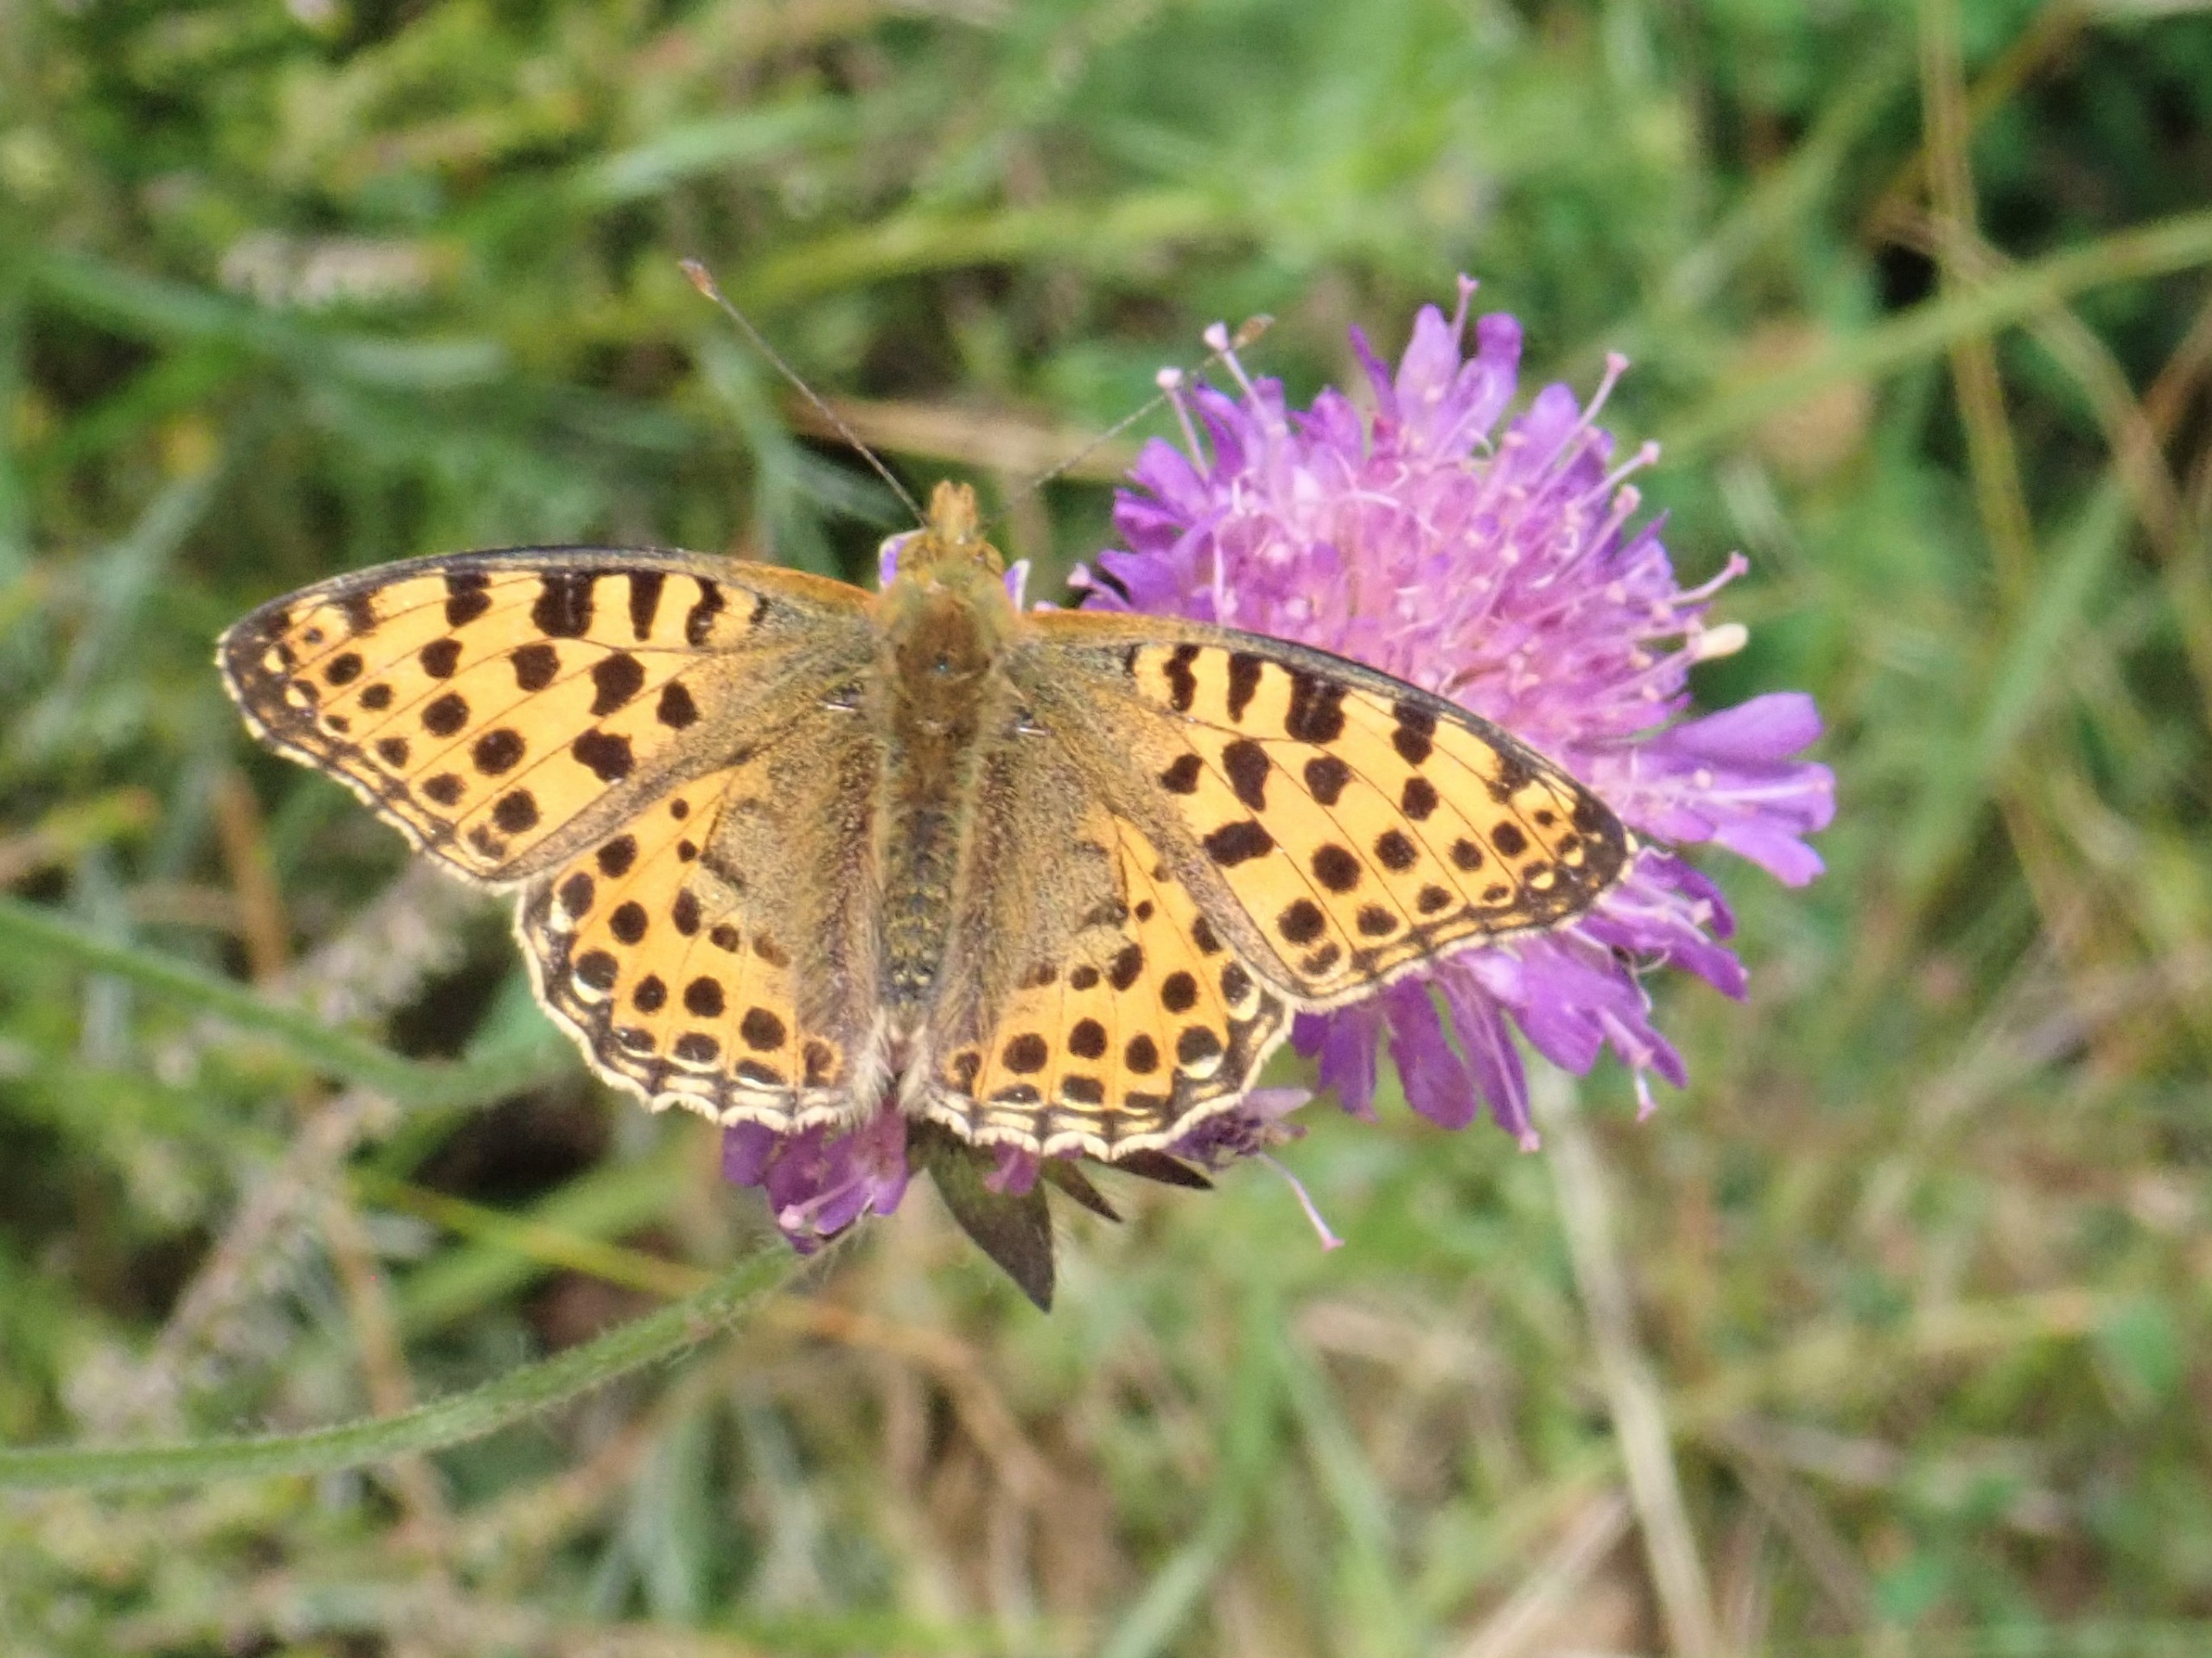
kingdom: Animalia
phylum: Arthropoda
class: Insecta
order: Lepidoptera
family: Nymphalidae
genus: Issoria
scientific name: Issoria lathonia
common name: Storplettet perlemorsommerfugl
